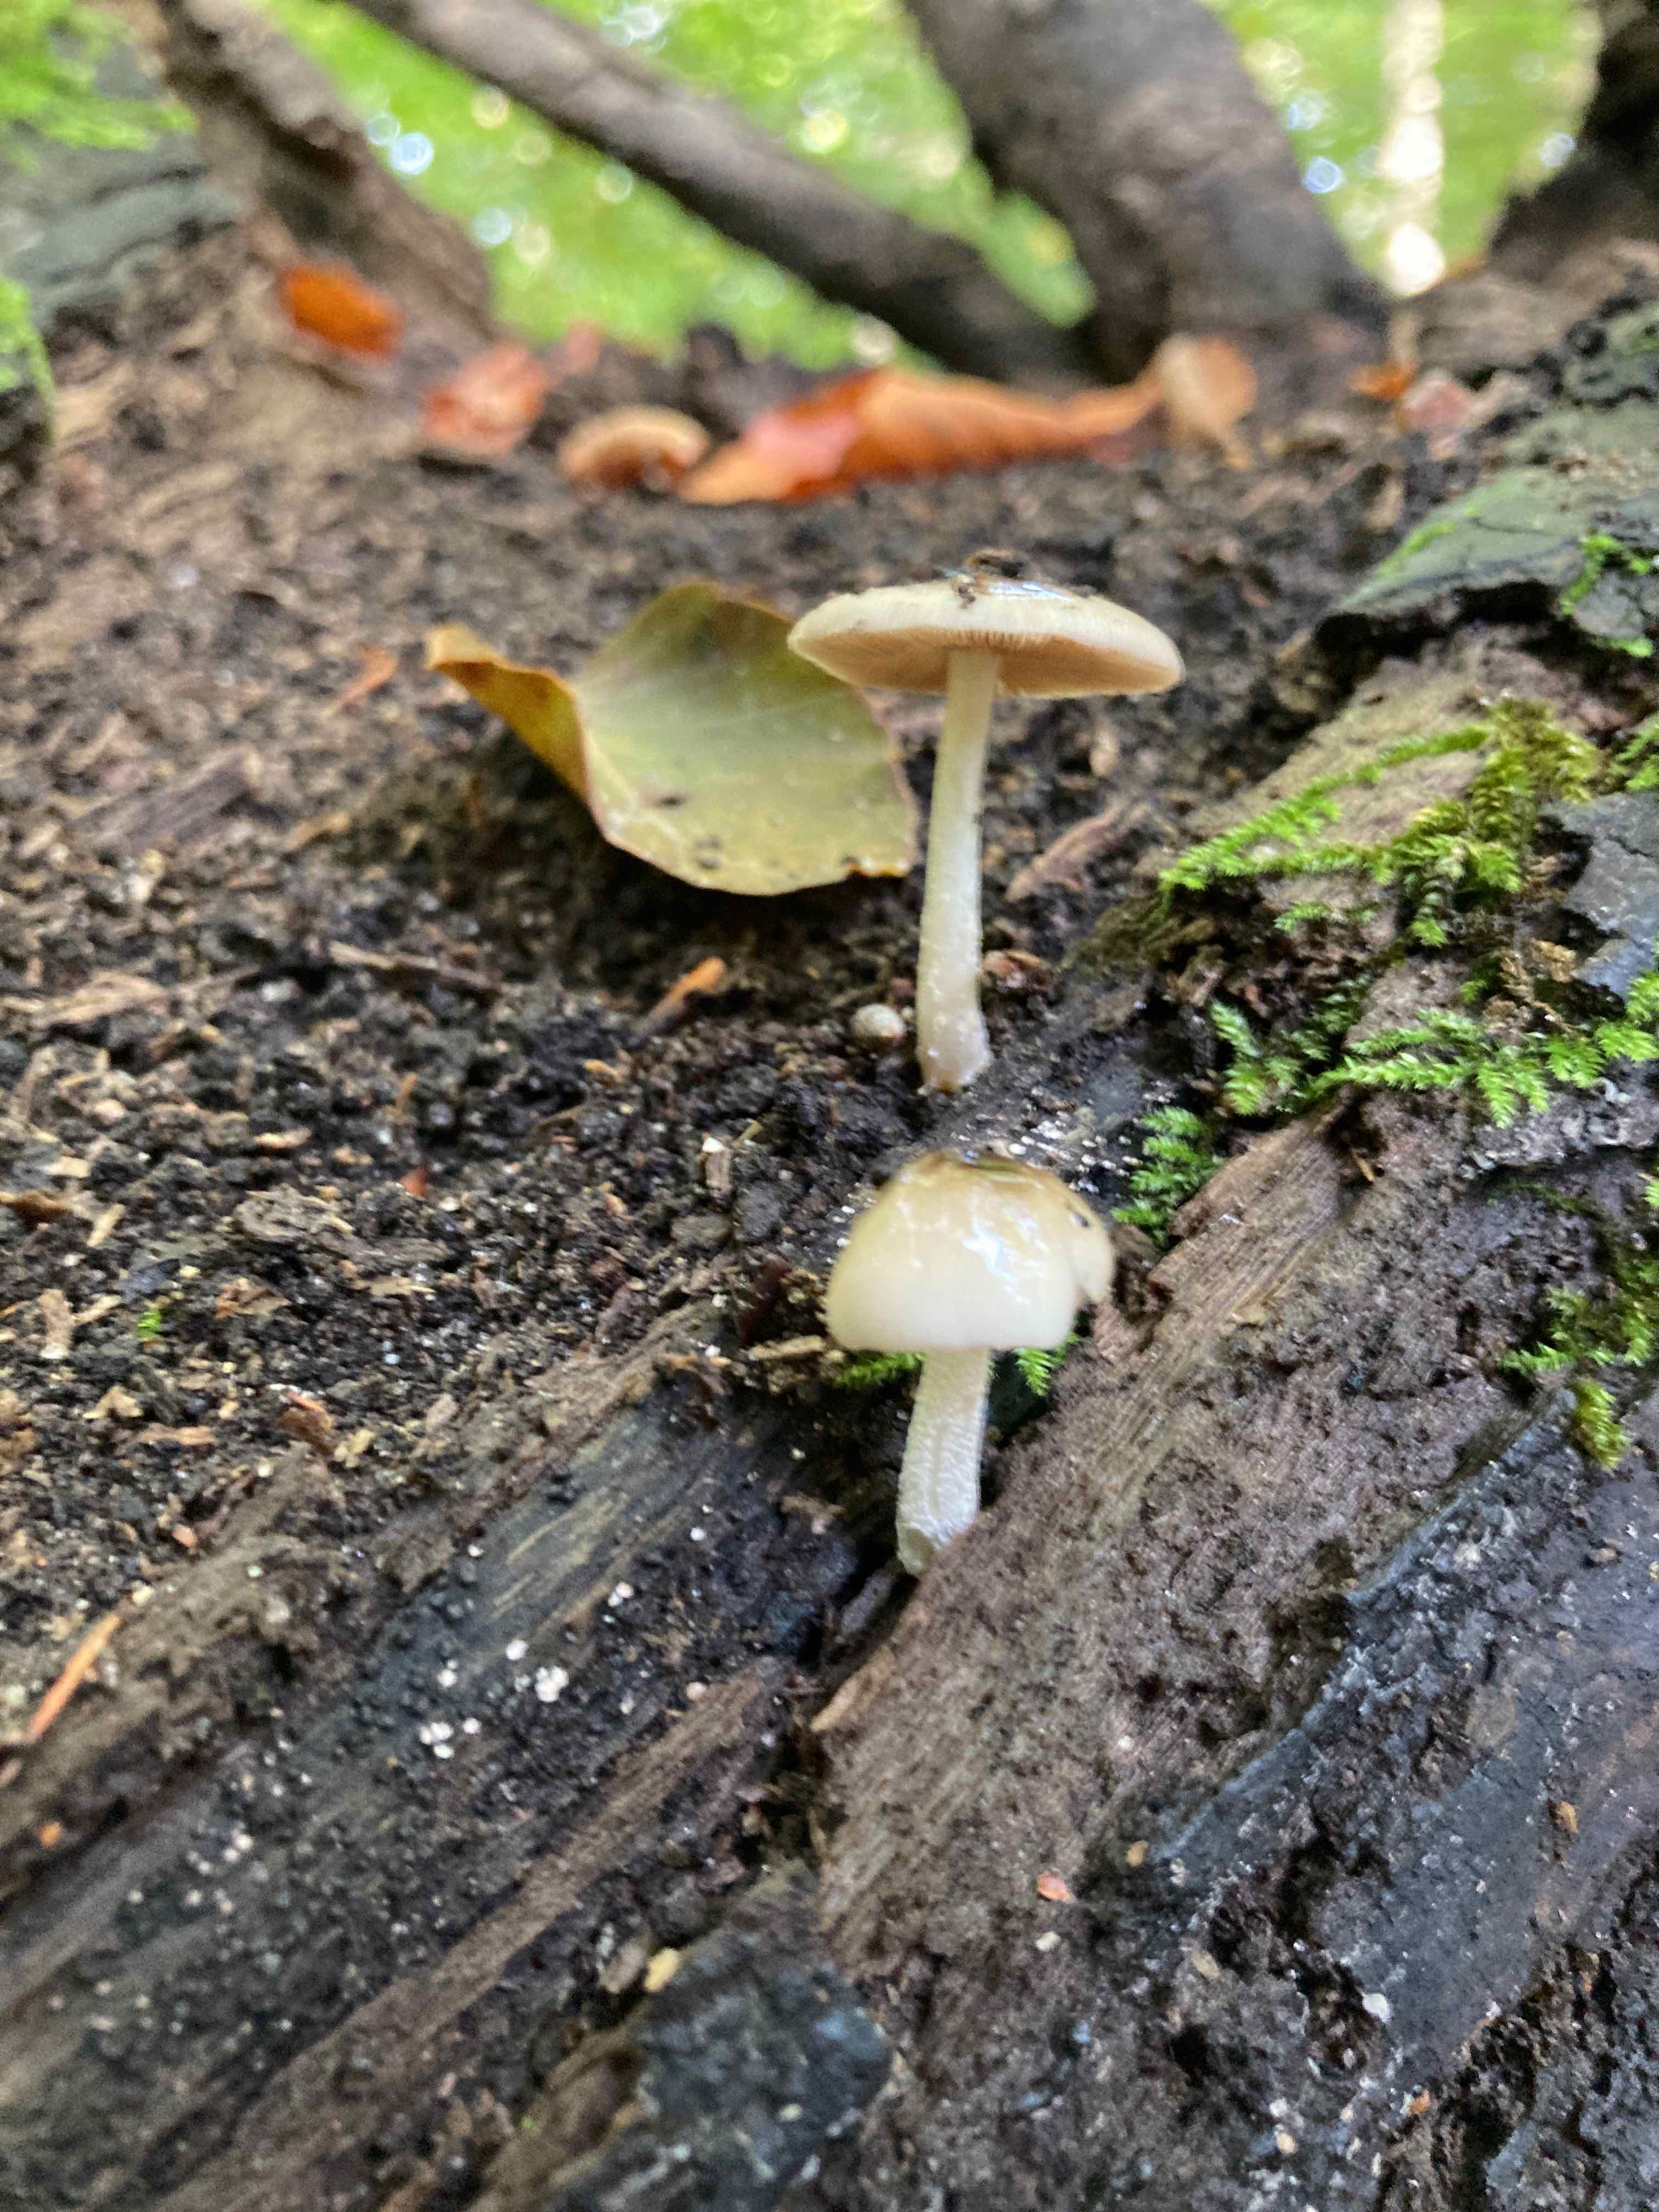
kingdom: Fungi
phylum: Basidiomycota
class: Agaricomycetes
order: Agaricales
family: Bolbitiaceae
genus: Bolbitius
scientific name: Bolbitius reticulatus
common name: Netted fieldcap
